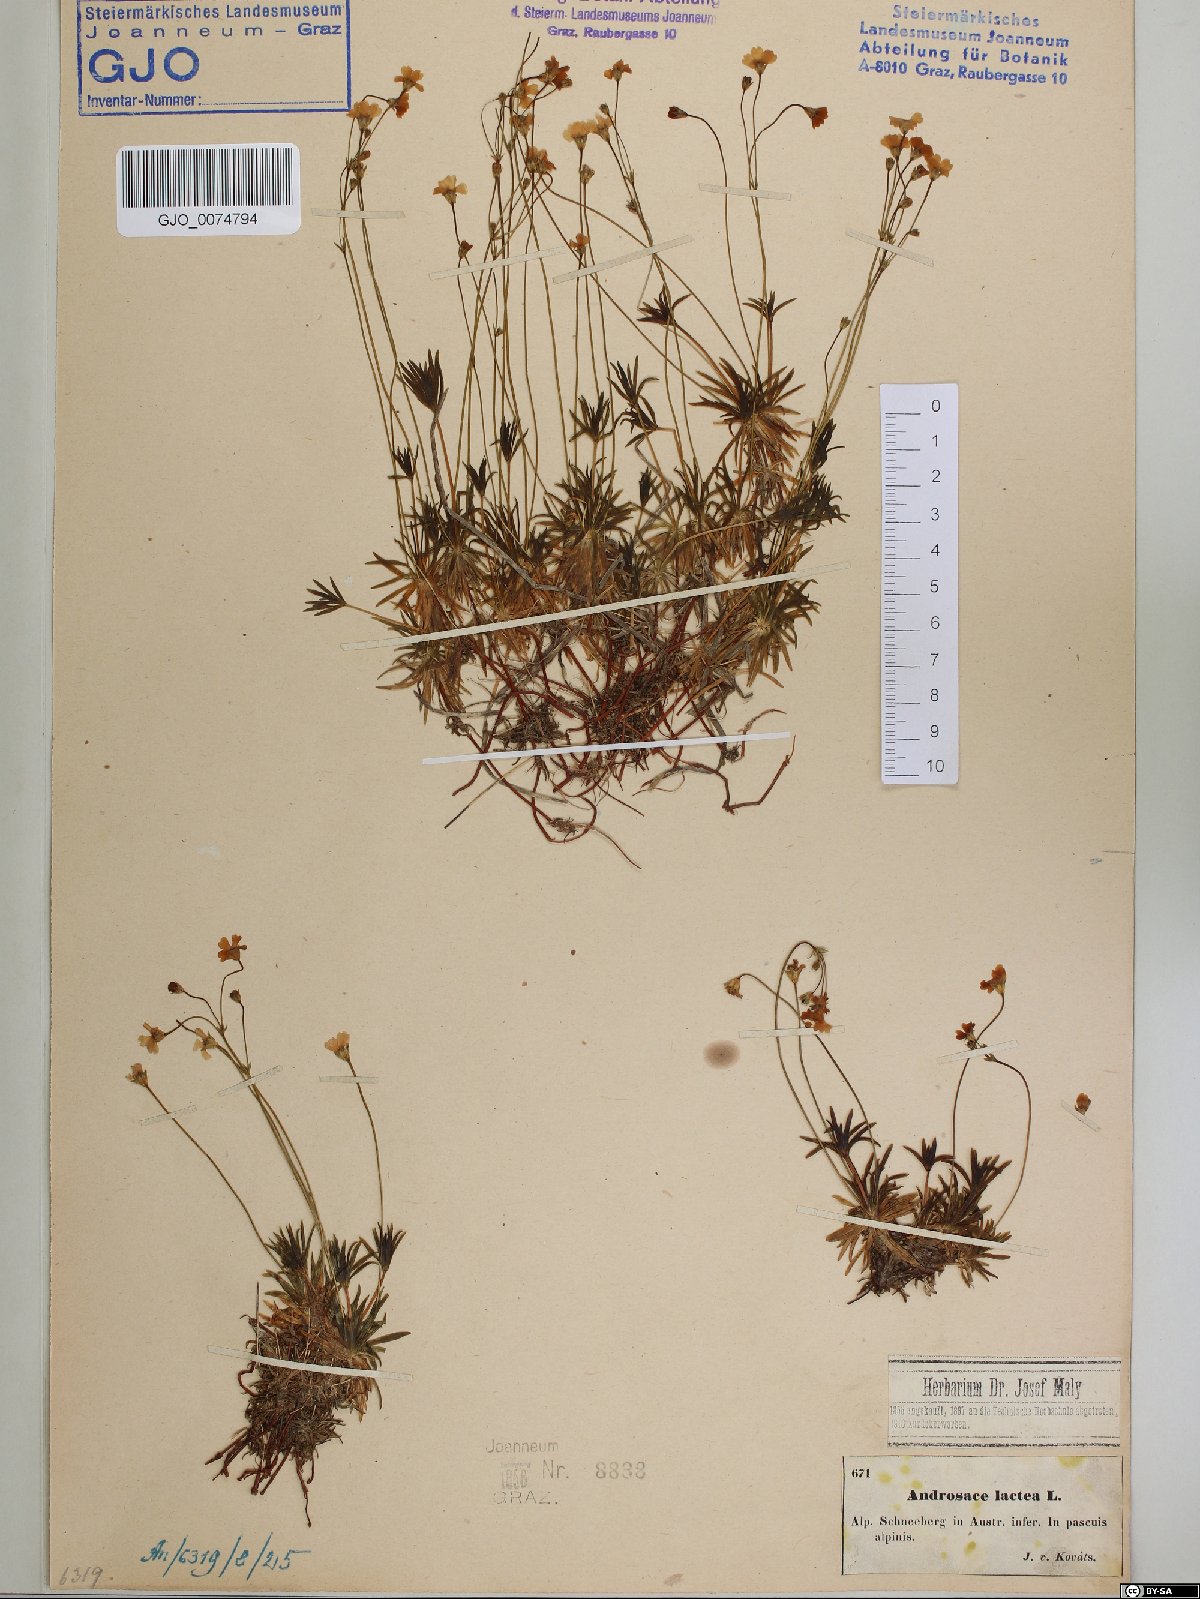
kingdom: Plantae
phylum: Tracheophyta
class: Magnoliopsida
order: Ericales
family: Primulaceae
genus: Androsace
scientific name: Androsace lactea
